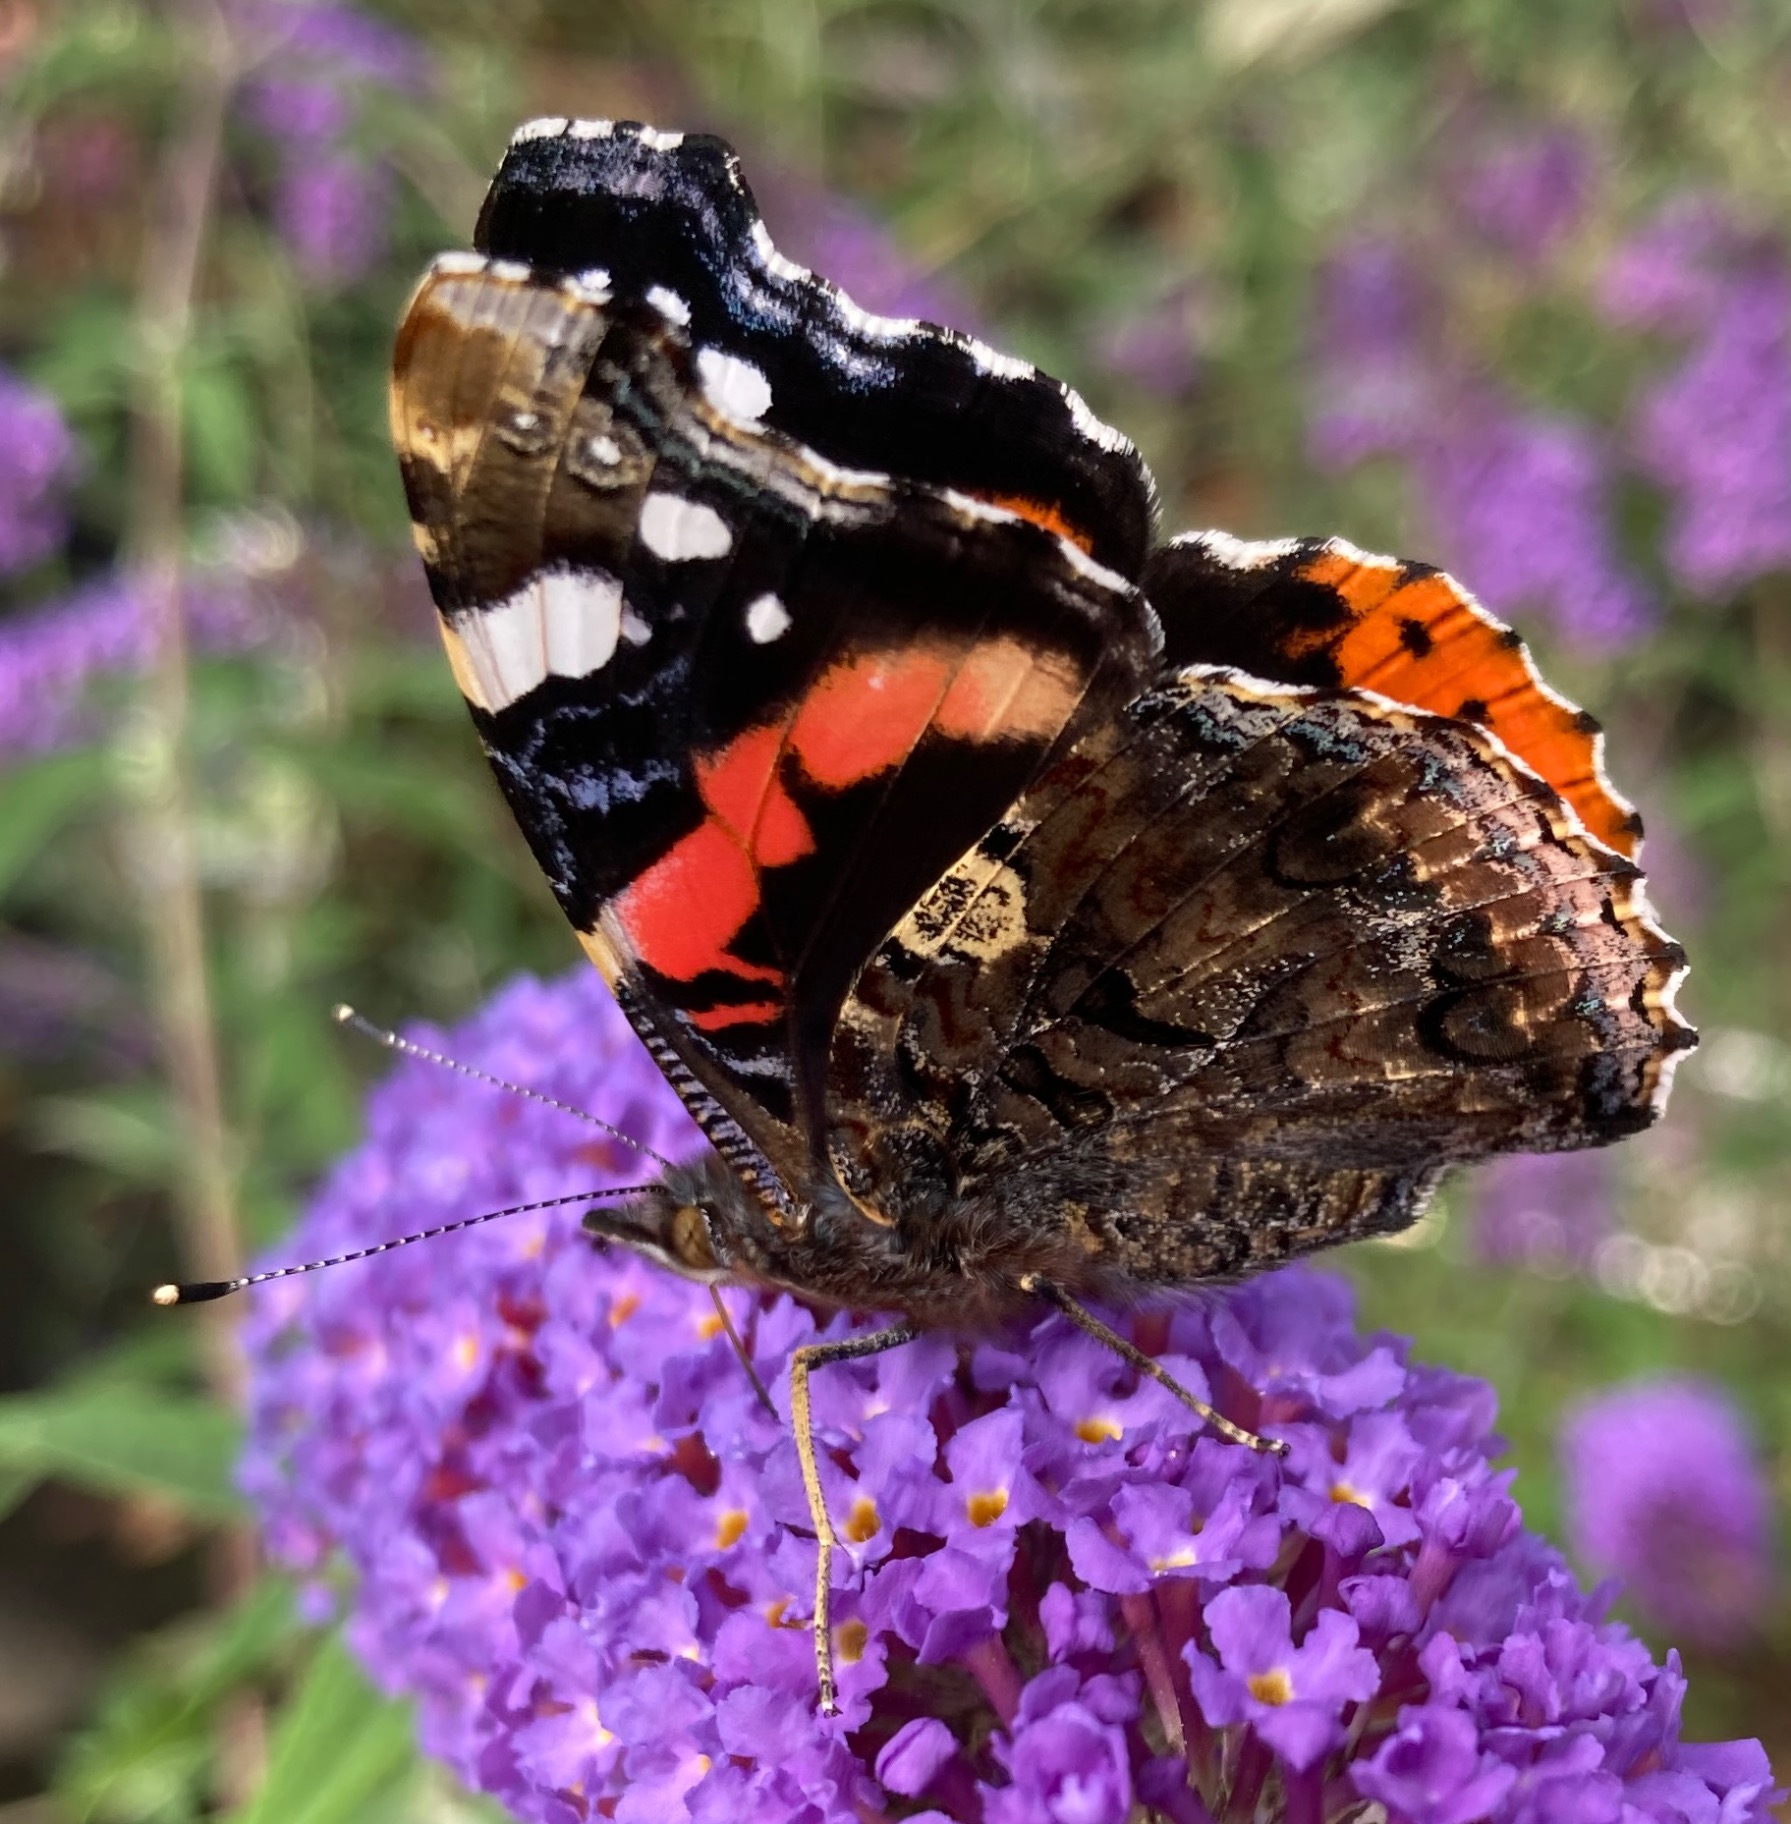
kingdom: Animalia
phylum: Arthropoda
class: Insecta
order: Lepidoptera
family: Nymphalidae
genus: Vanessa
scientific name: Vanessa atalanta
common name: Admiral
